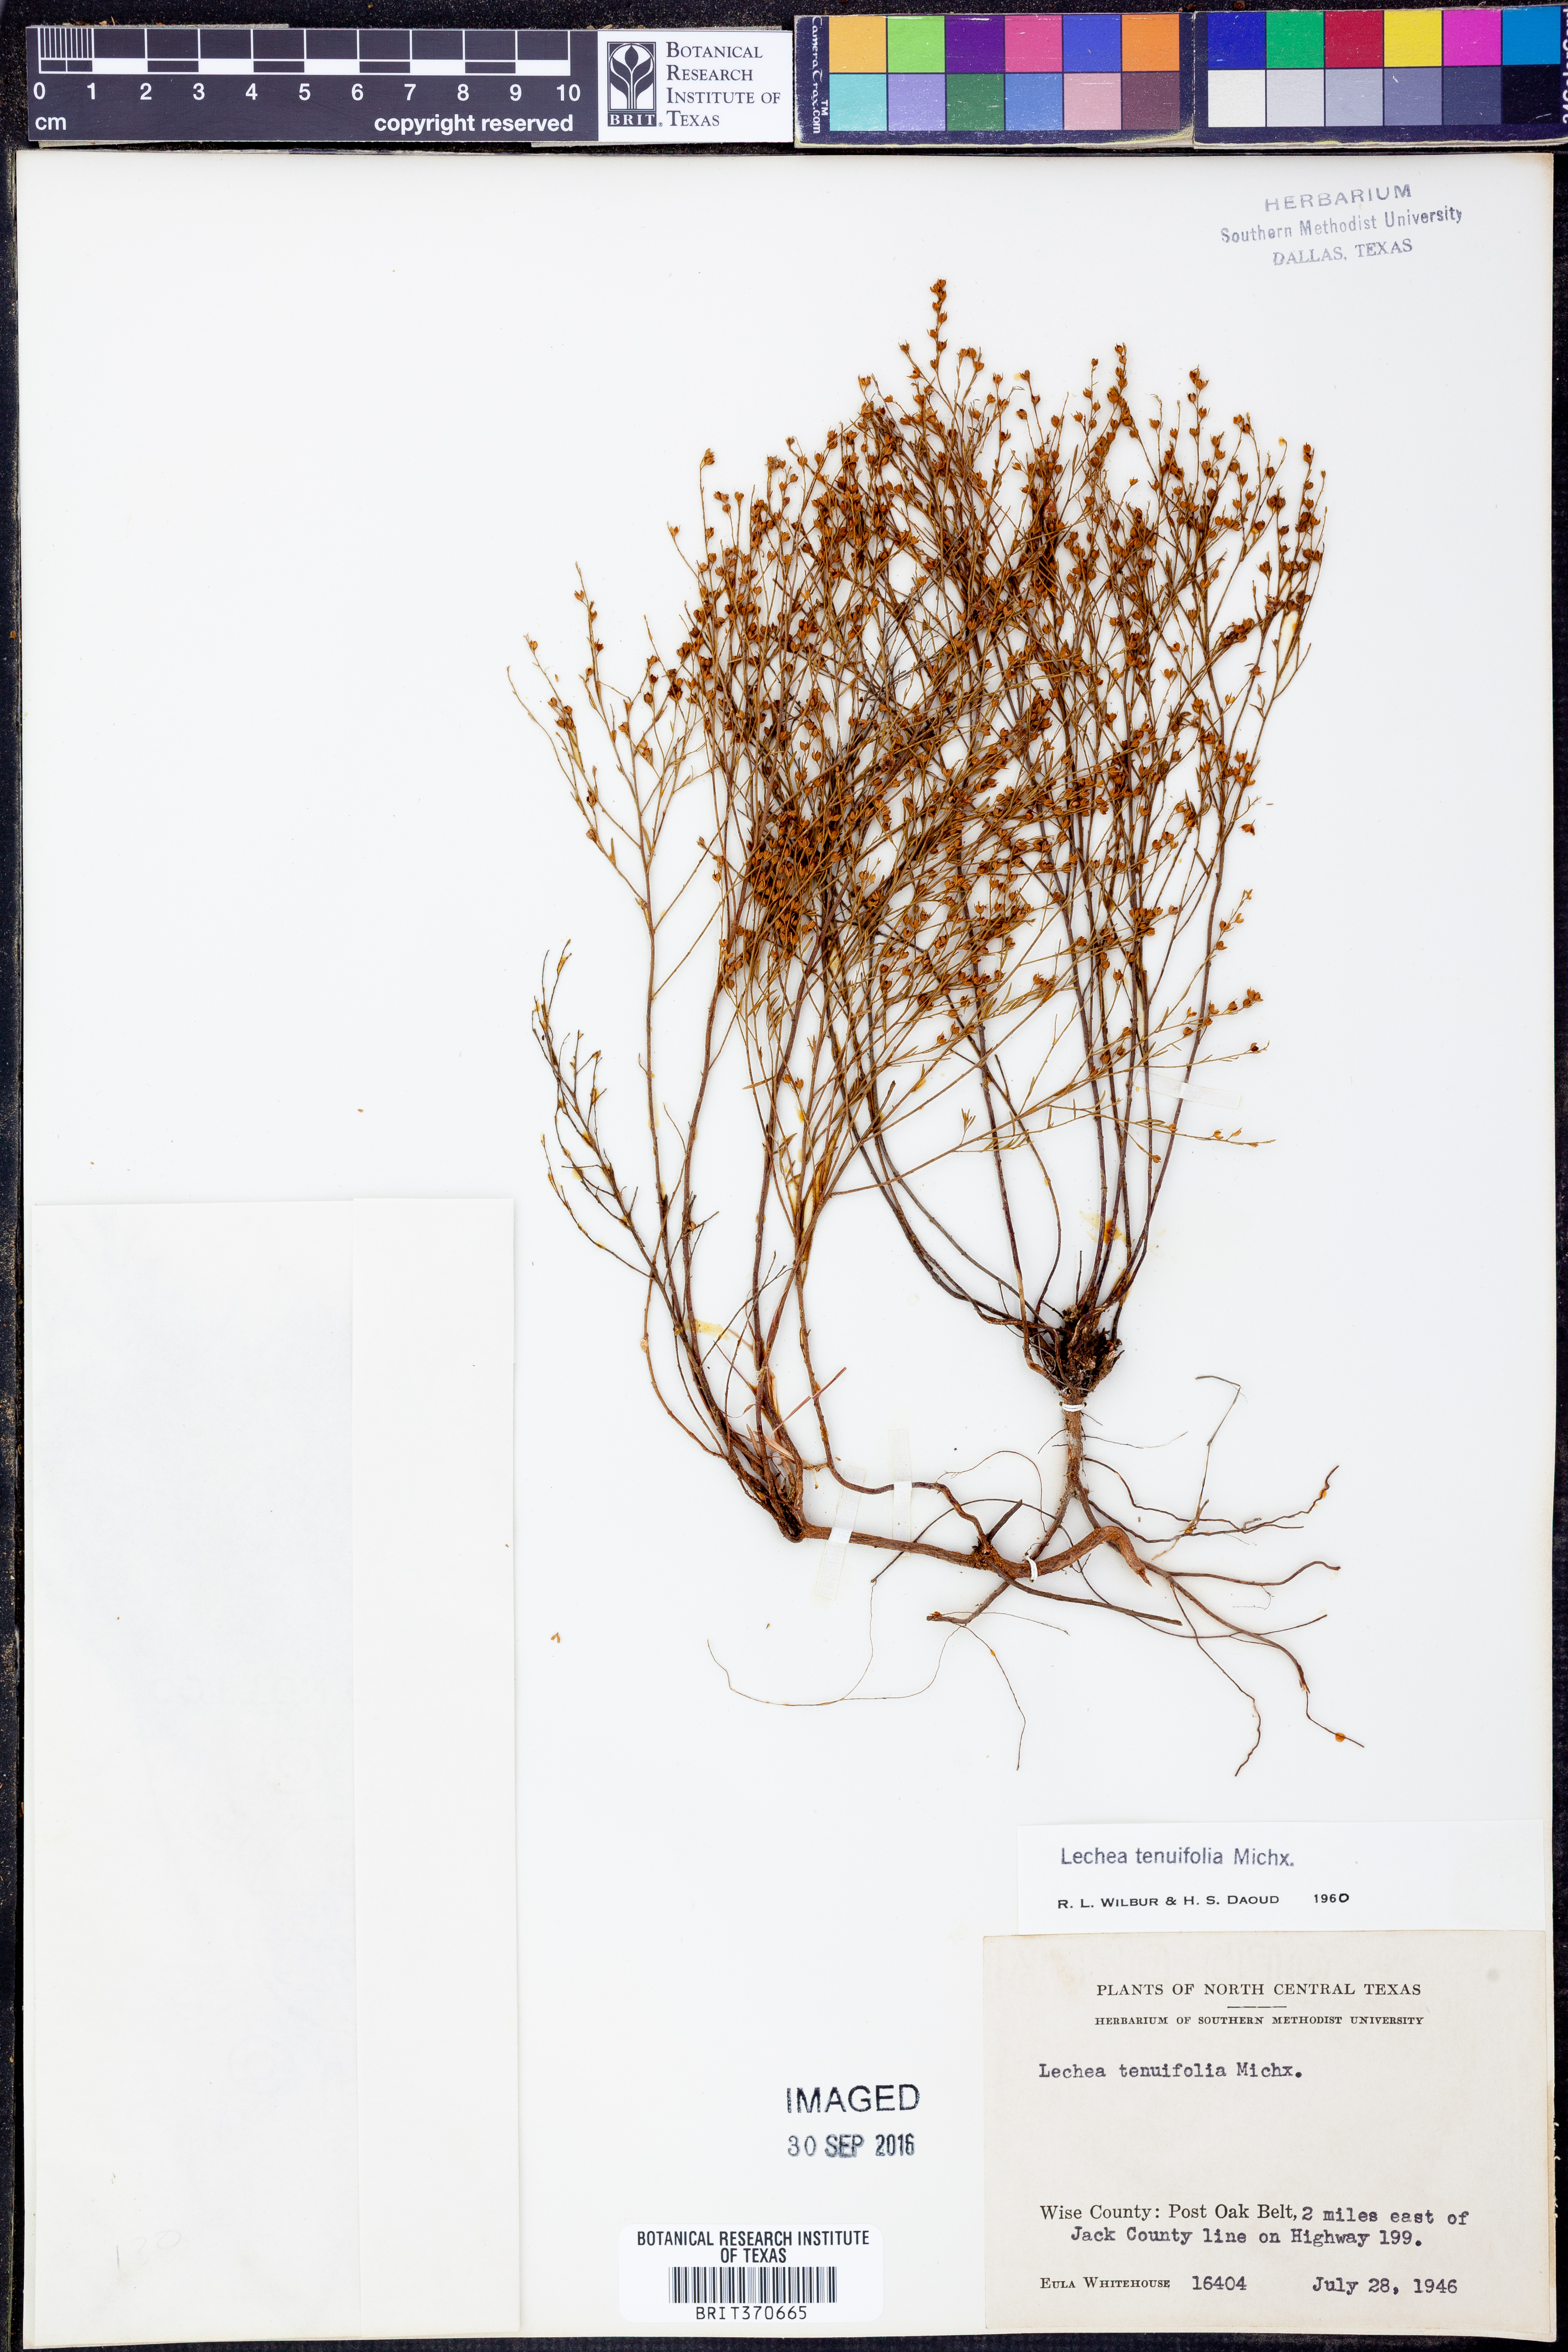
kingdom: Plantae
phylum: Tracheophyta
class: Magnoliopsida
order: Malvales
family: Cistaceae
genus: Lechea
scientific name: Lechea tenuifolia
